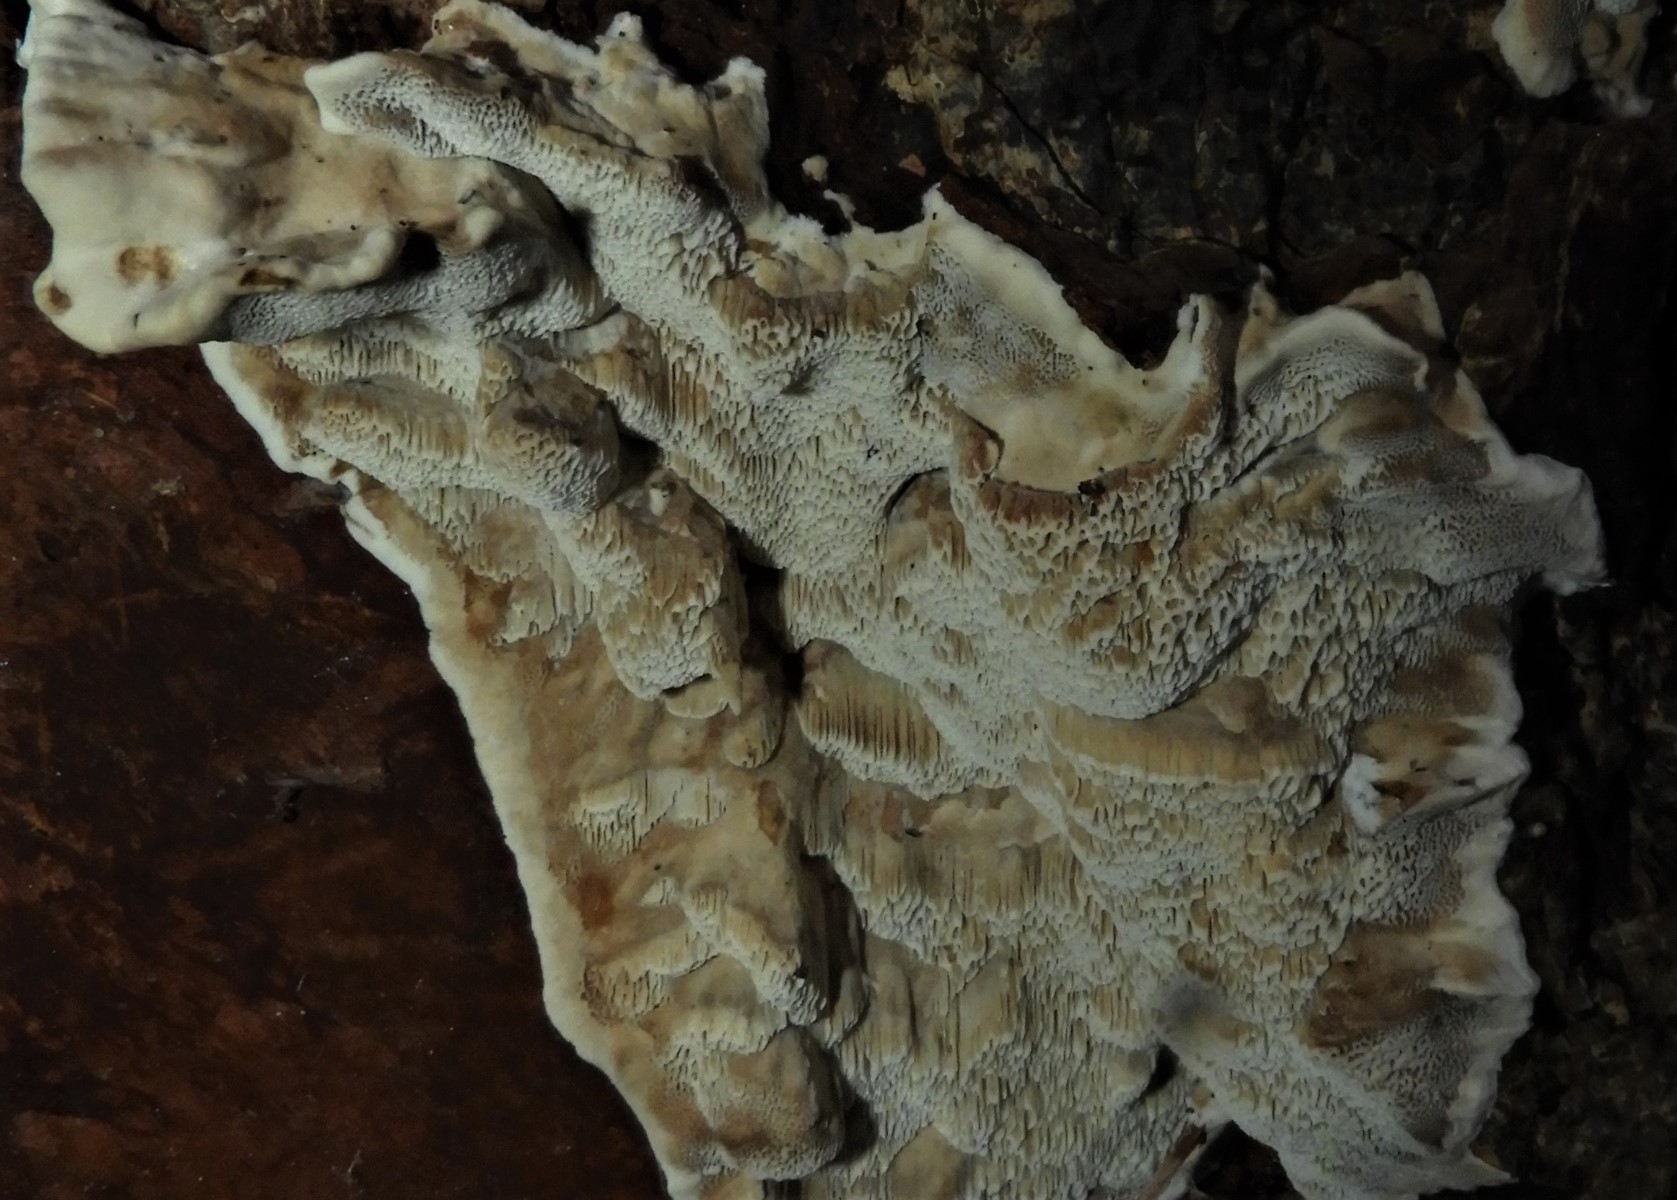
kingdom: Fungi
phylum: Basidiomycota
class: Agaricomycetes
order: Hymenochaetales
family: Hymenochaetaceae
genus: Mensularia
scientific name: Mensularia nodulosa
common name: bøge-spejlporesvamp
